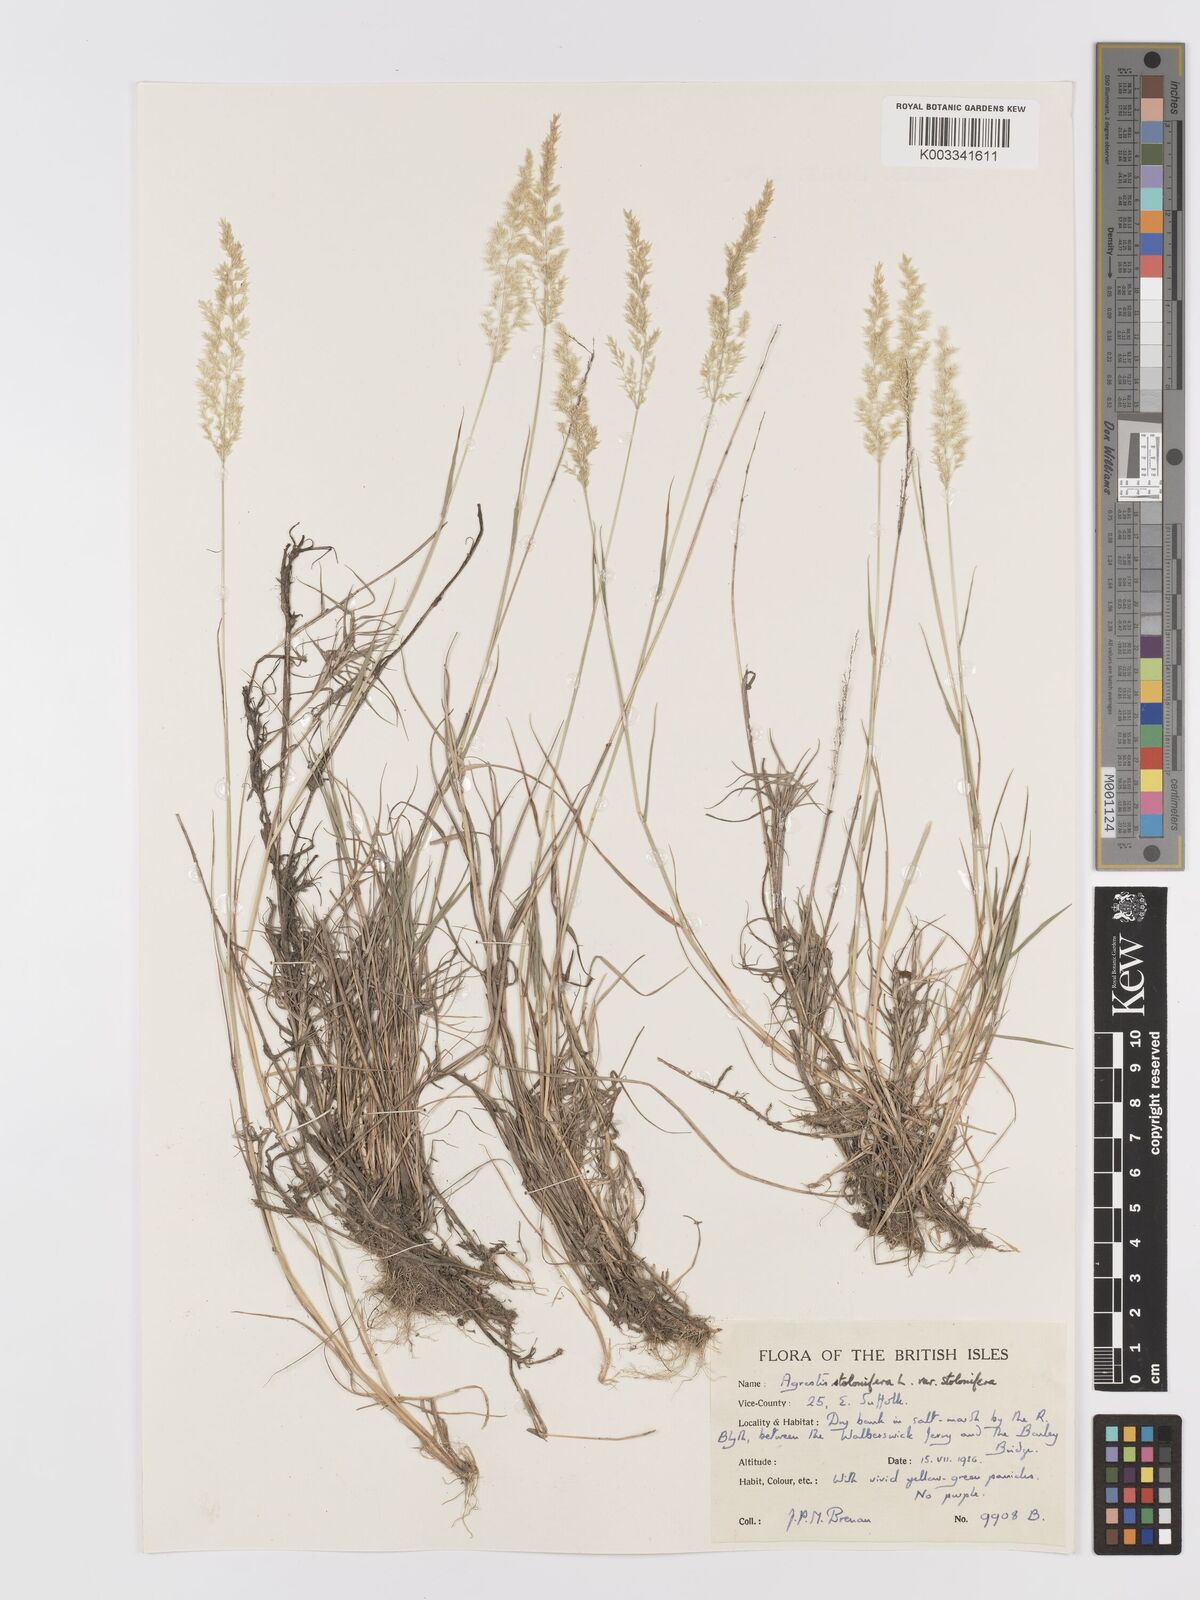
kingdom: Plantae
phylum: Tracheophyta
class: Liliopsida
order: Poales
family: Poaceae
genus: Agrostis
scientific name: Agrostis stolonifera
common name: Creeping bentgrass
